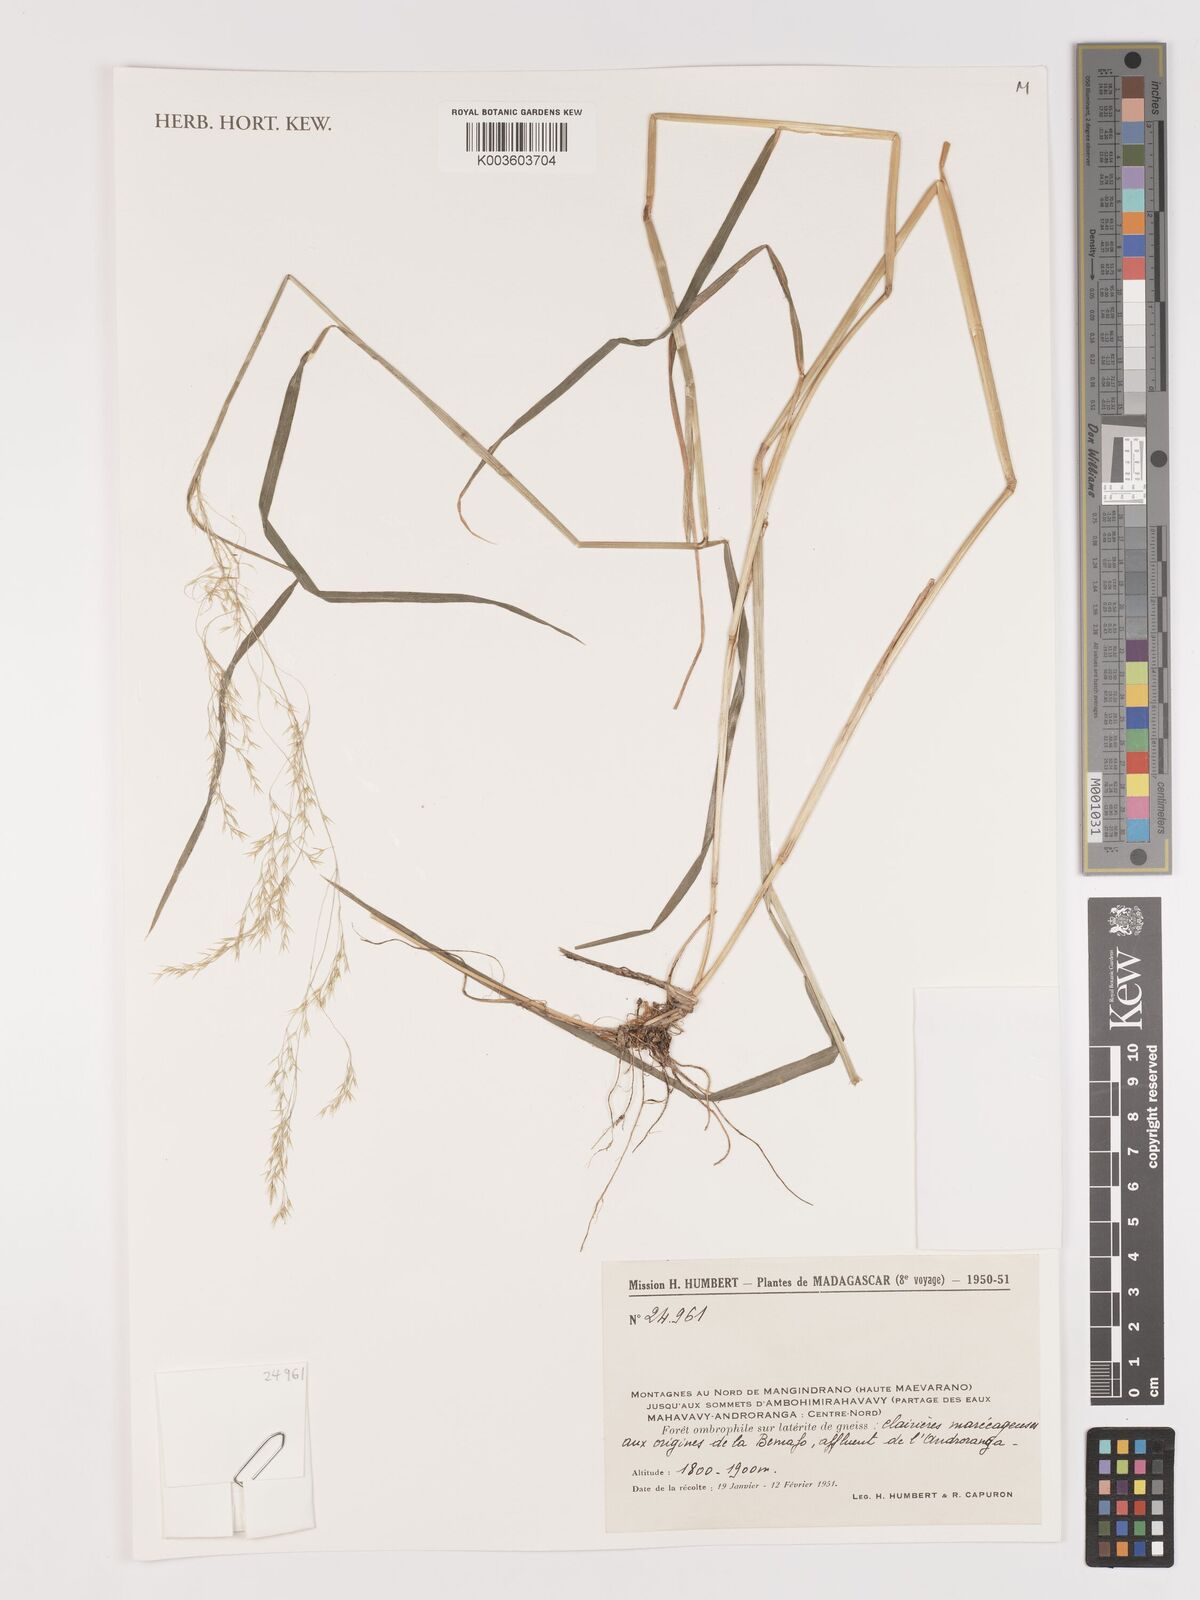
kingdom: Plantae
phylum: Tracheophyta
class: Liliopsida
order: Poales
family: Poaceae
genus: Agrostis
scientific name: Agrostis
